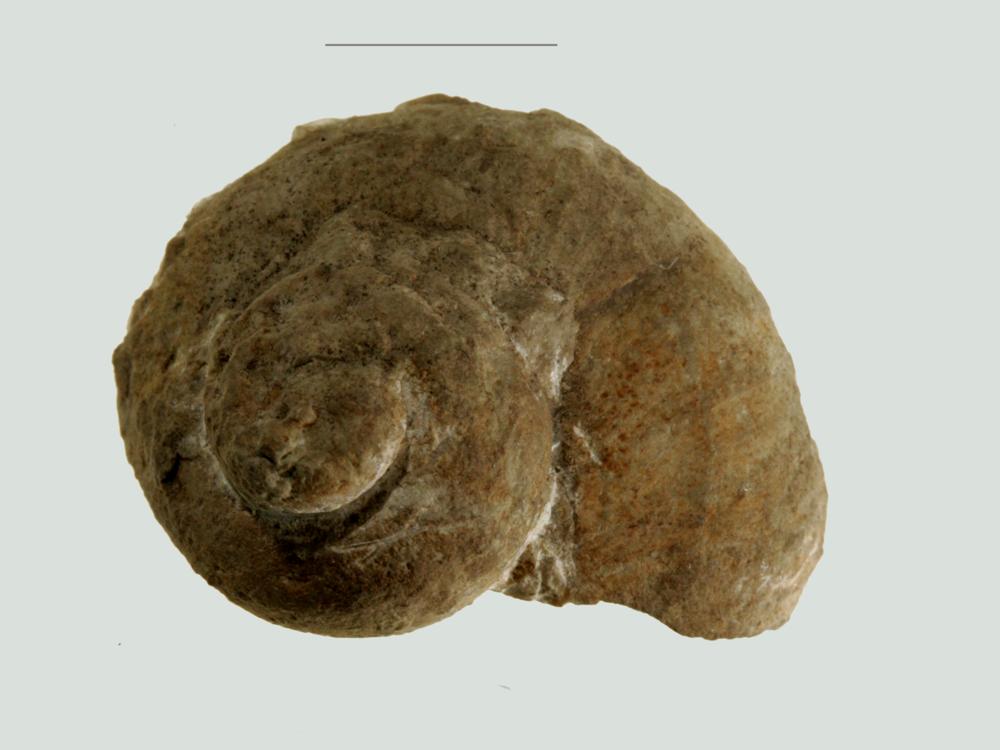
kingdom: Animalia
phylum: Mollusca
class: Gastropoda
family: Euomphalidae
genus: Euomphalus
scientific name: Euomphalus
